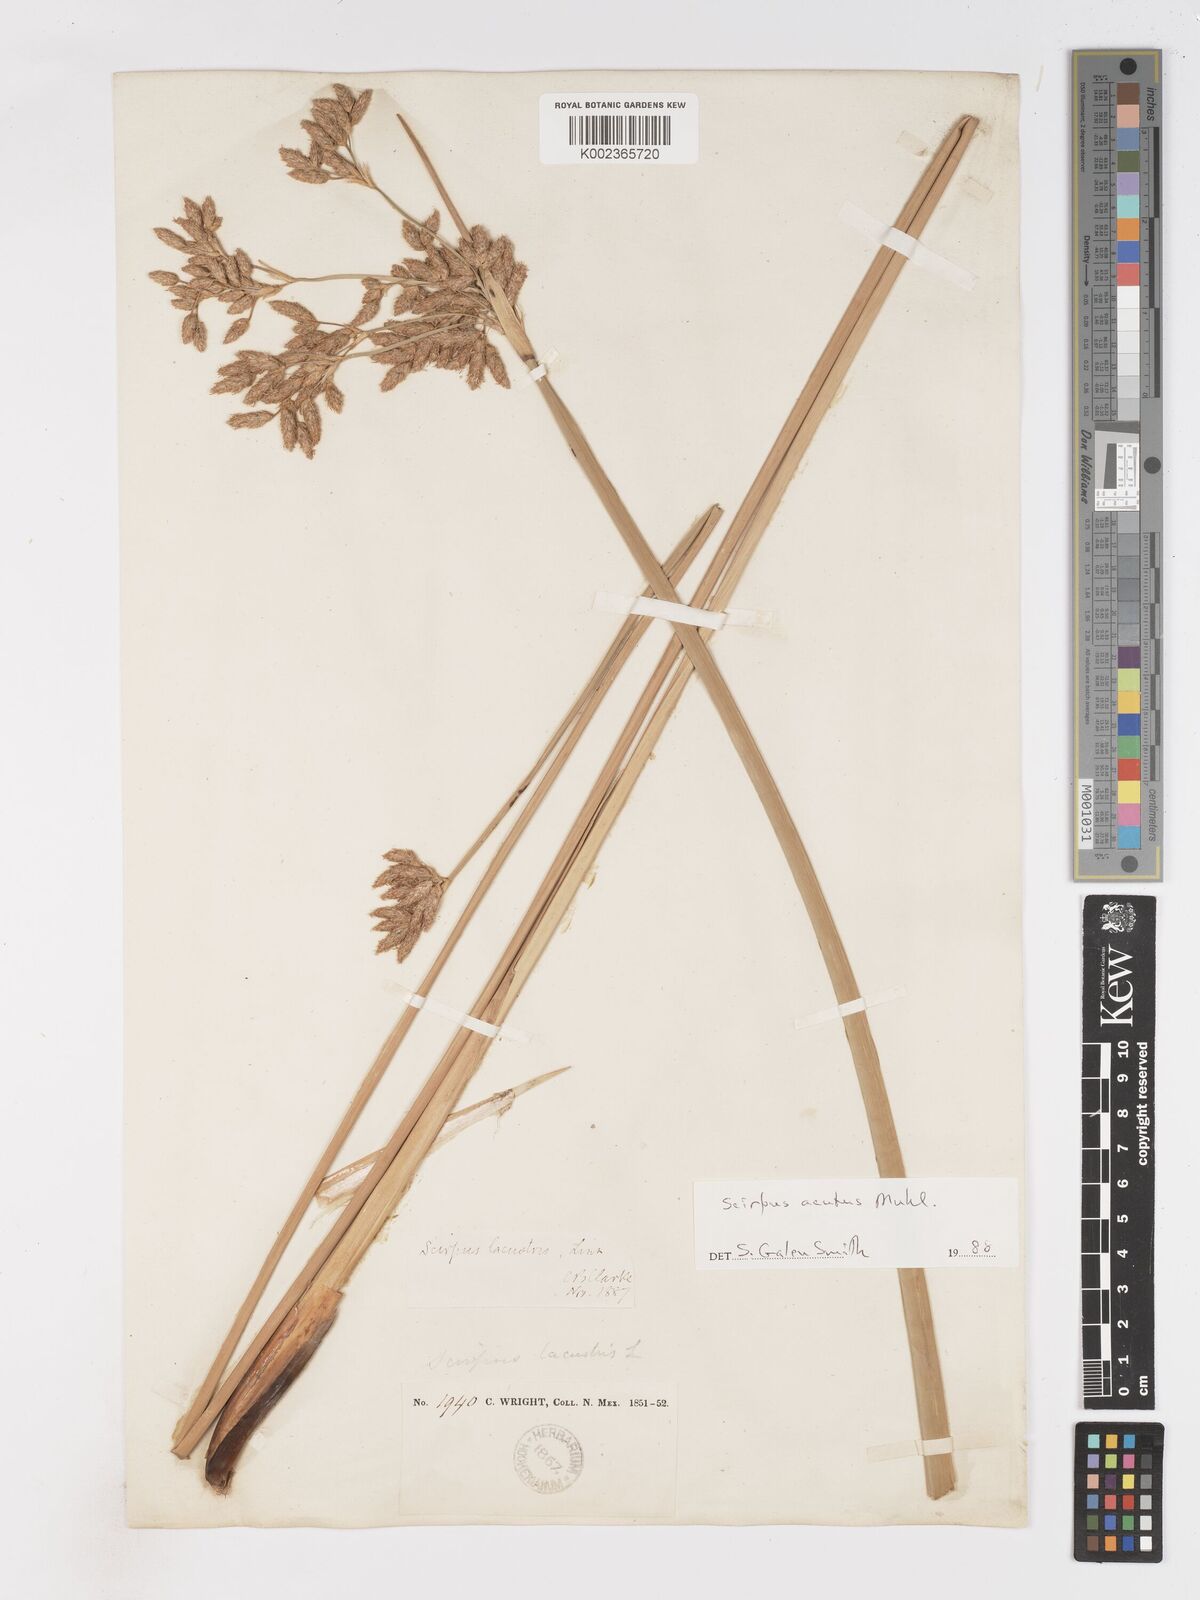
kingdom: Plantae
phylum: Tracheophyta
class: Liliopsida
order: Poales
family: Cyperaceae
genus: Schoenoplectus
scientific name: Schoenoplectus lacustris
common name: Common club-rush
